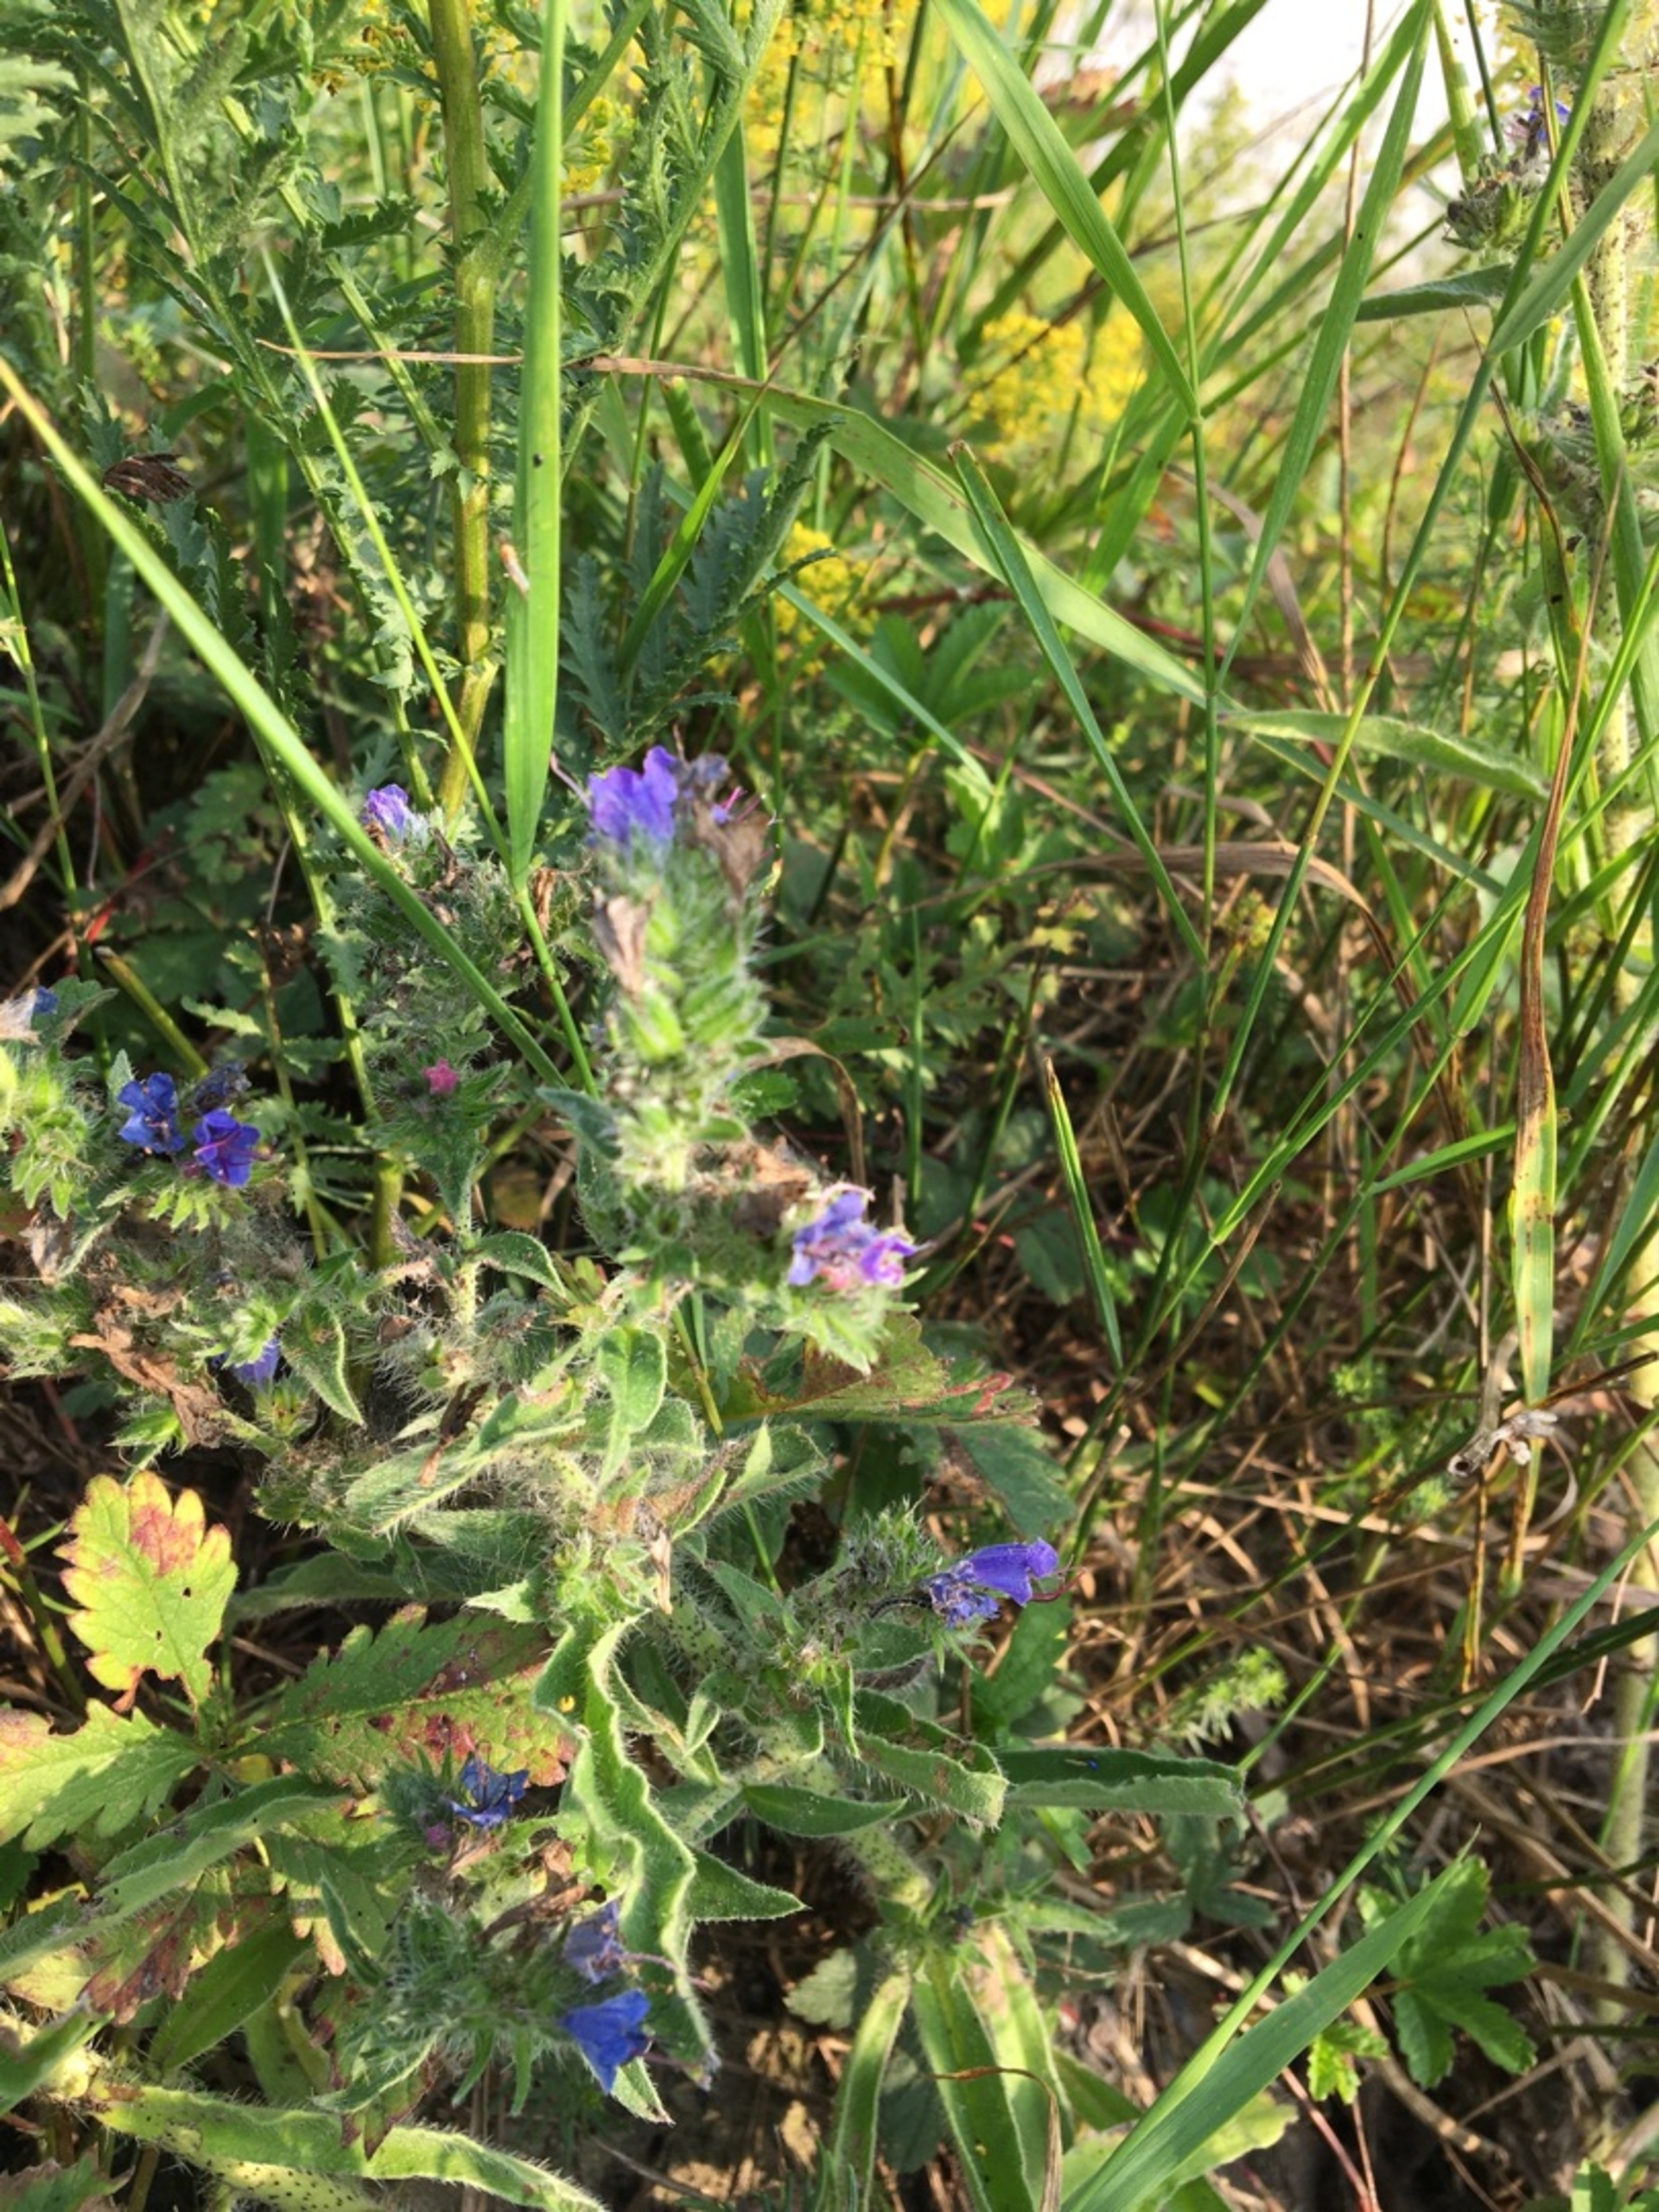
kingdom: Plantae
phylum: Tracheophyta
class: Magnoliopsida
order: Boraginales
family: Boraginaceae
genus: Echium
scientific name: Echium vulgare
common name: Slangehoved
